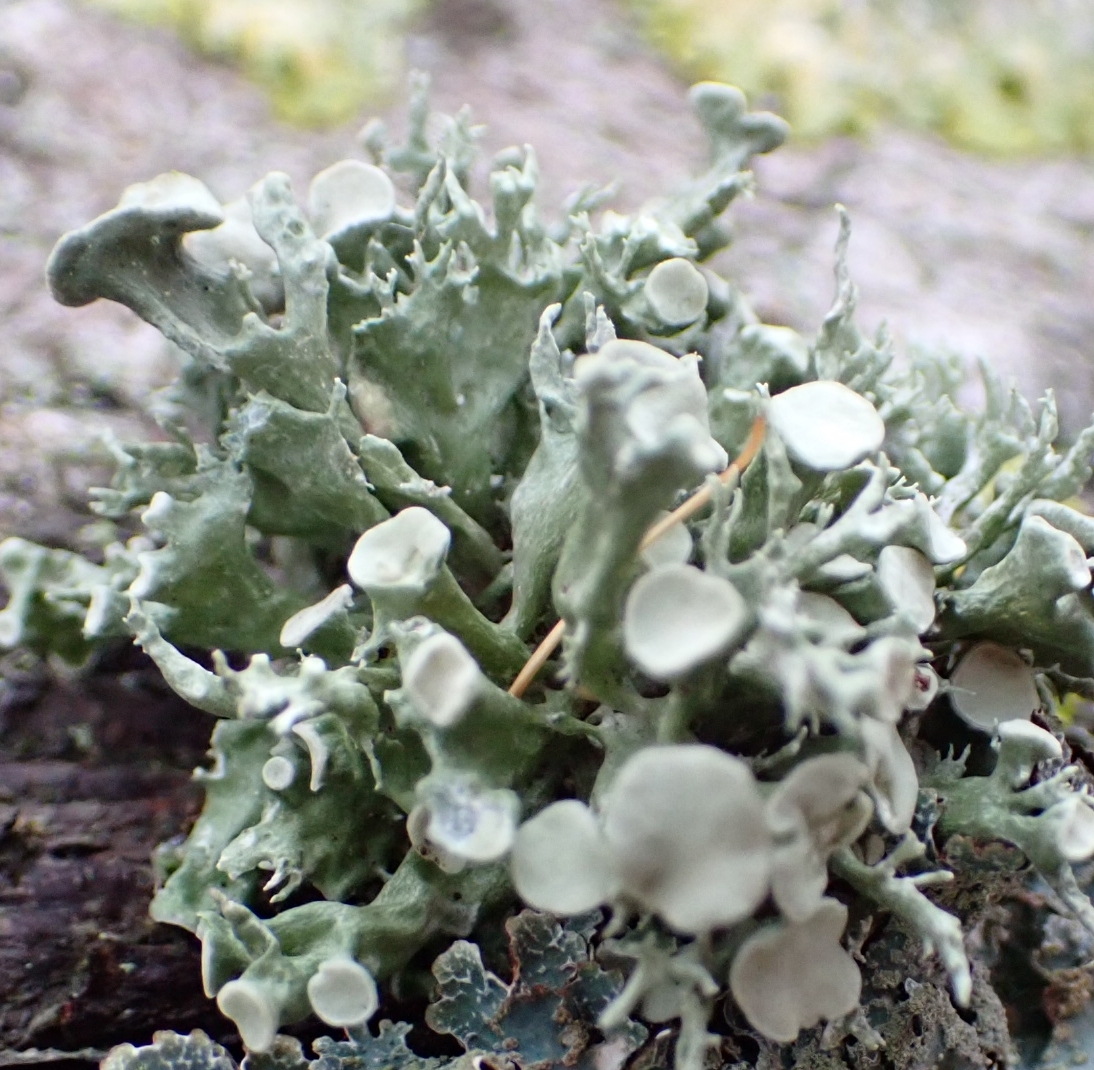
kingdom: Fungi
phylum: Ascomycota
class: Lecanoromycetes
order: Lecanorales
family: Ramalinaceae
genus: Ramalina
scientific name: Ramalina fastigiata
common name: tue-grenlav
